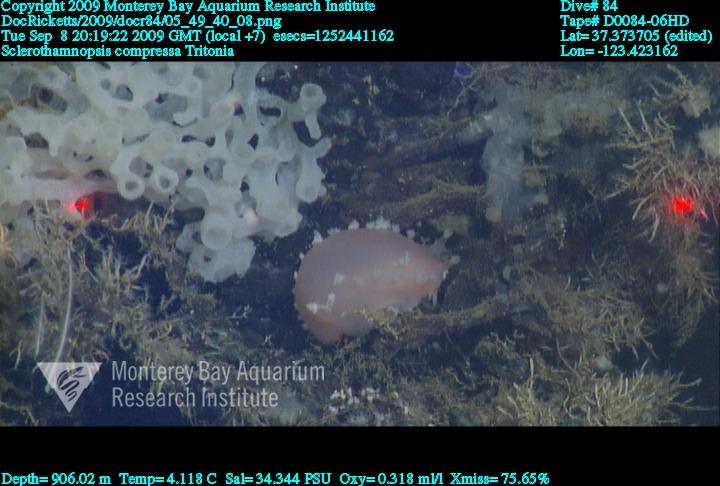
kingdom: Animalia
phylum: Porifera
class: Hexactinellida
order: Sceptrulophora
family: Tretodictyidae
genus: Sclerothamnopsis
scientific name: Sclerothamnopsis compressa
